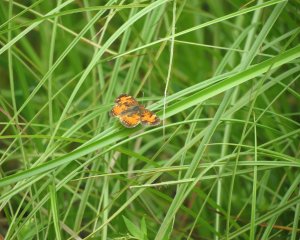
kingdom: Animalia
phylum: Arthropoda
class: Insecta
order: Lepidoptera
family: Nymphalidae
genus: Phyciodes
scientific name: Phyciodes tharos
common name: Northern Crescent
